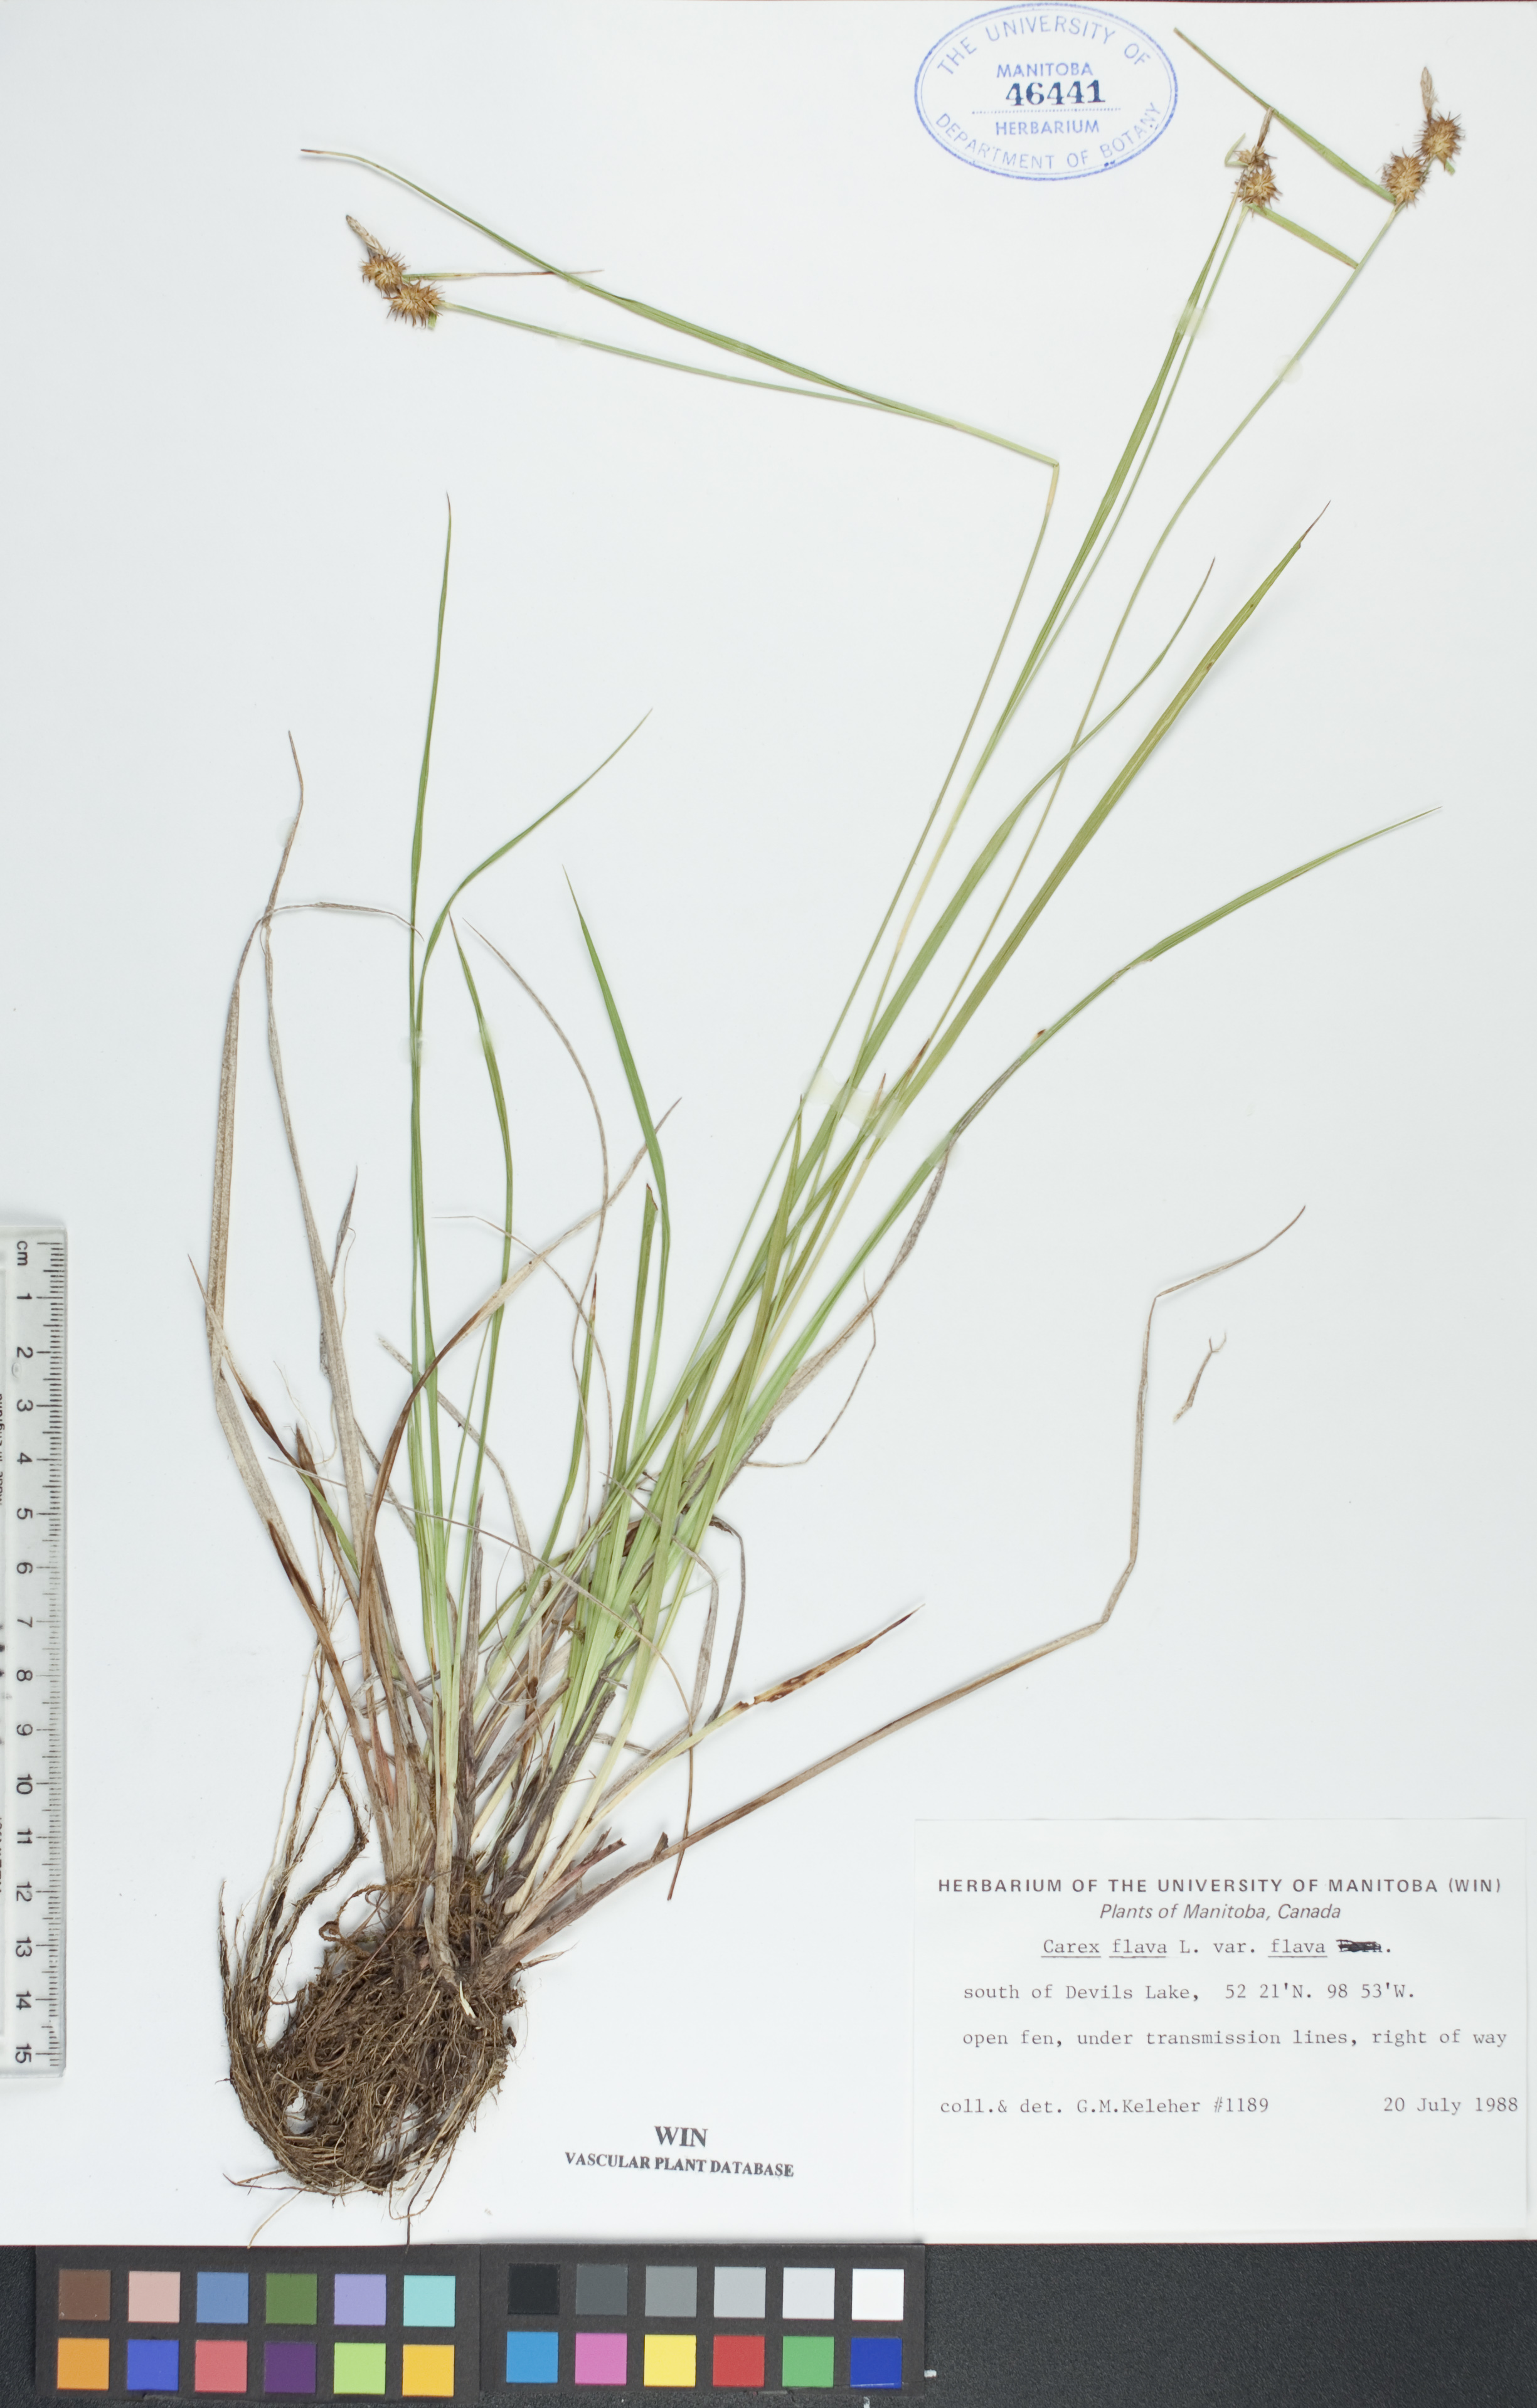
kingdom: Plantae
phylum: Tracheophyta
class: Liliopsida
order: Poales
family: Cyperaceae
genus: Carex
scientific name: Carex flava
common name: Large yellow-sedge
